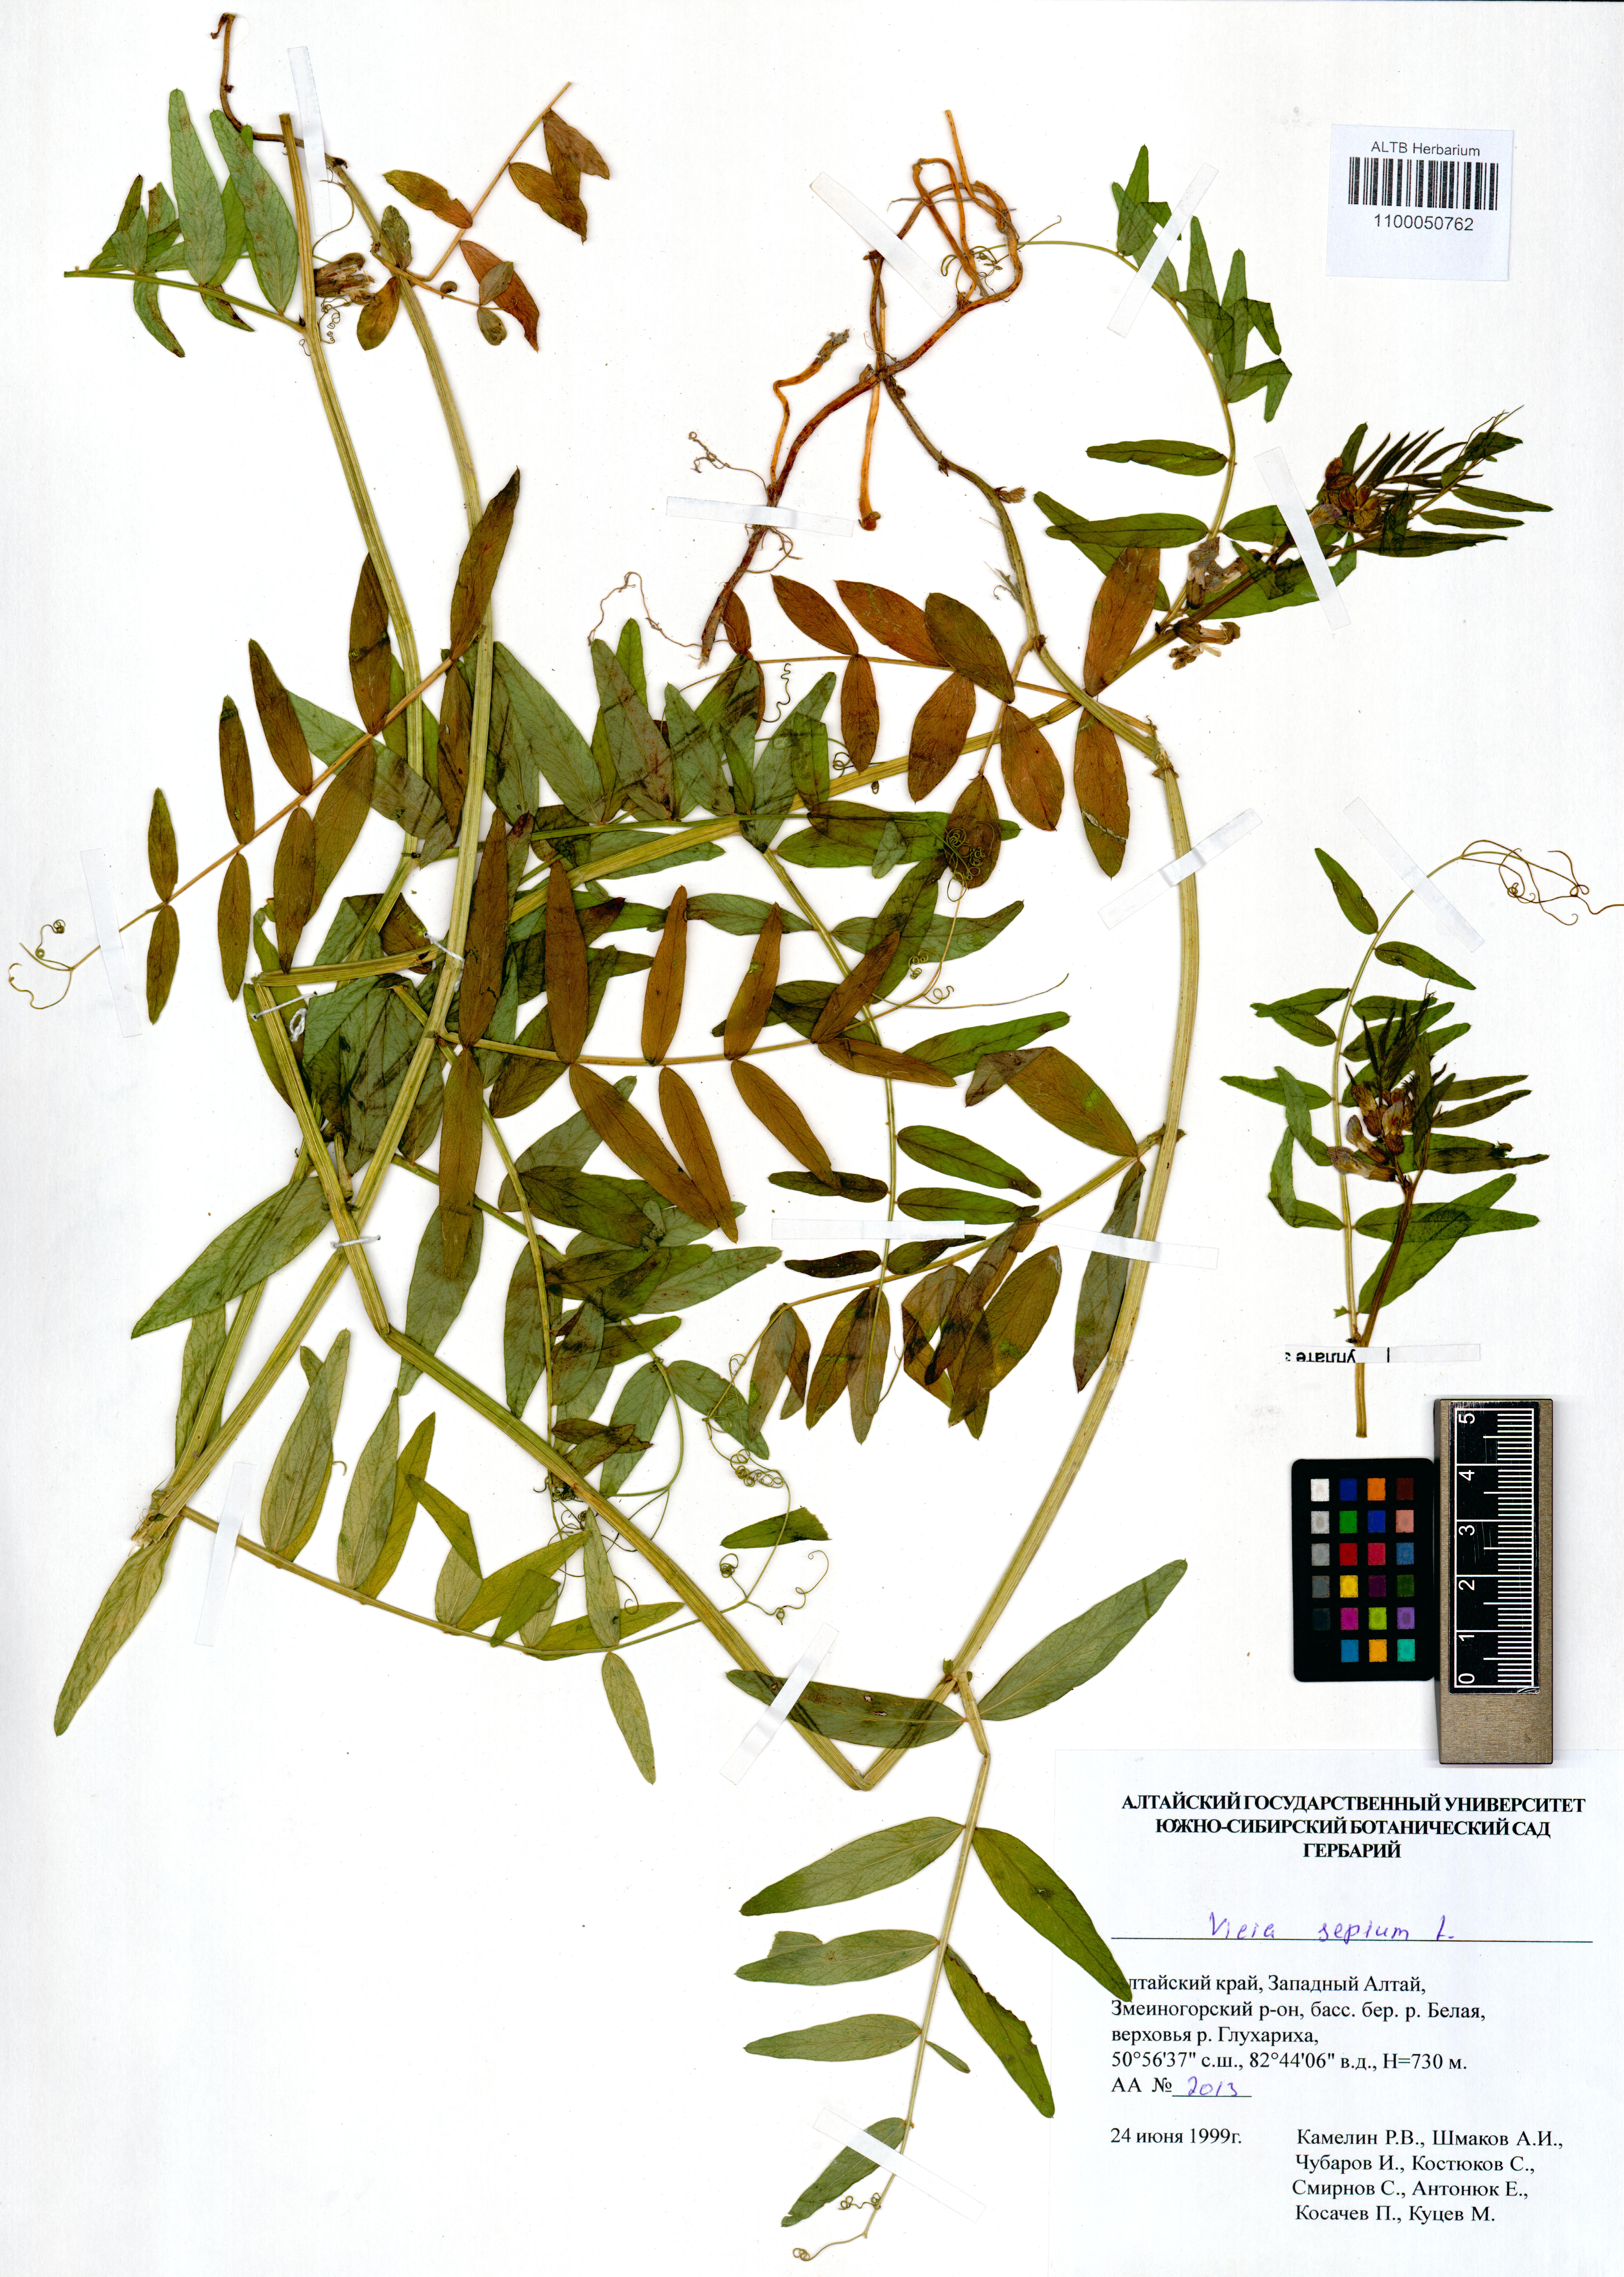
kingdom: Plantae
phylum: Tracheophyta
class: Magnoliopsida
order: Fabales
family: Fabaceae
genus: Vicia
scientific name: Vicia sepium
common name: Bush vetch
